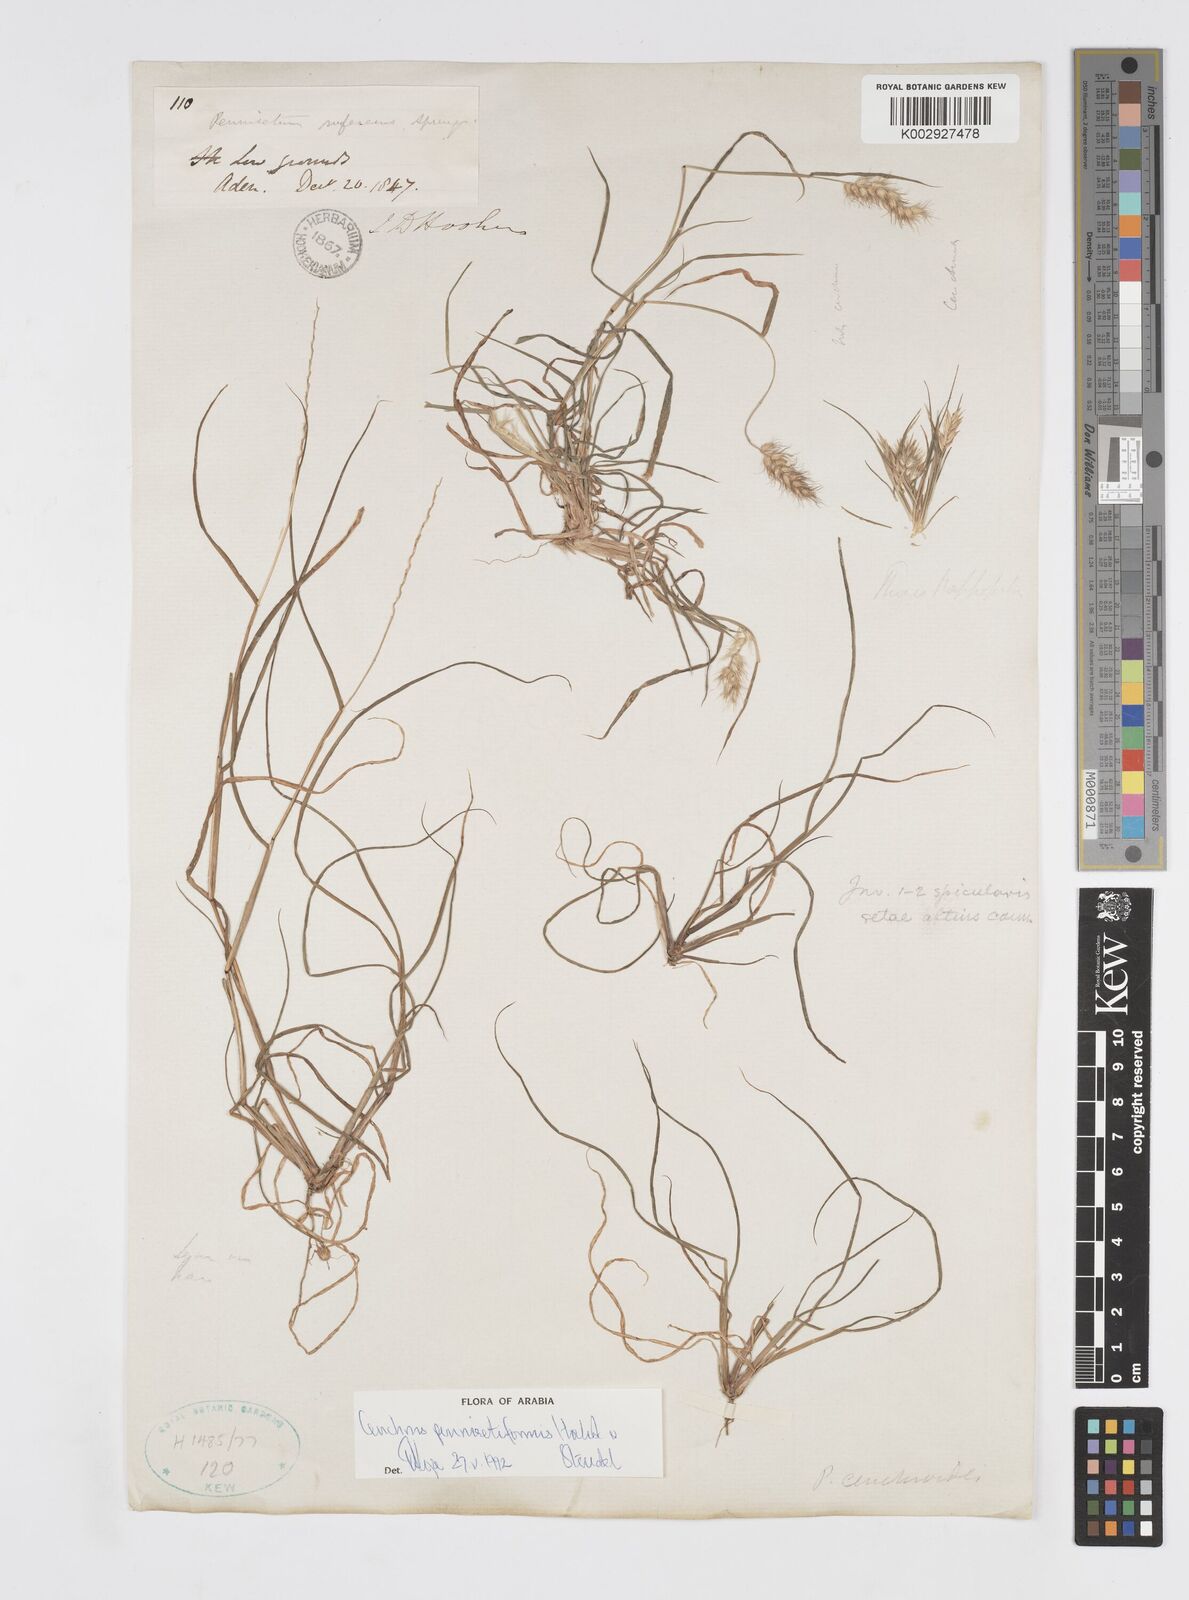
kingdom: Plantae
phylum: Tracheophyta
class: Liliopsida
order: Poales
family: Poaceae
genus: Cenchrus
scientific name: Cenchrus pennisetiformis
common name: Cloncurry
